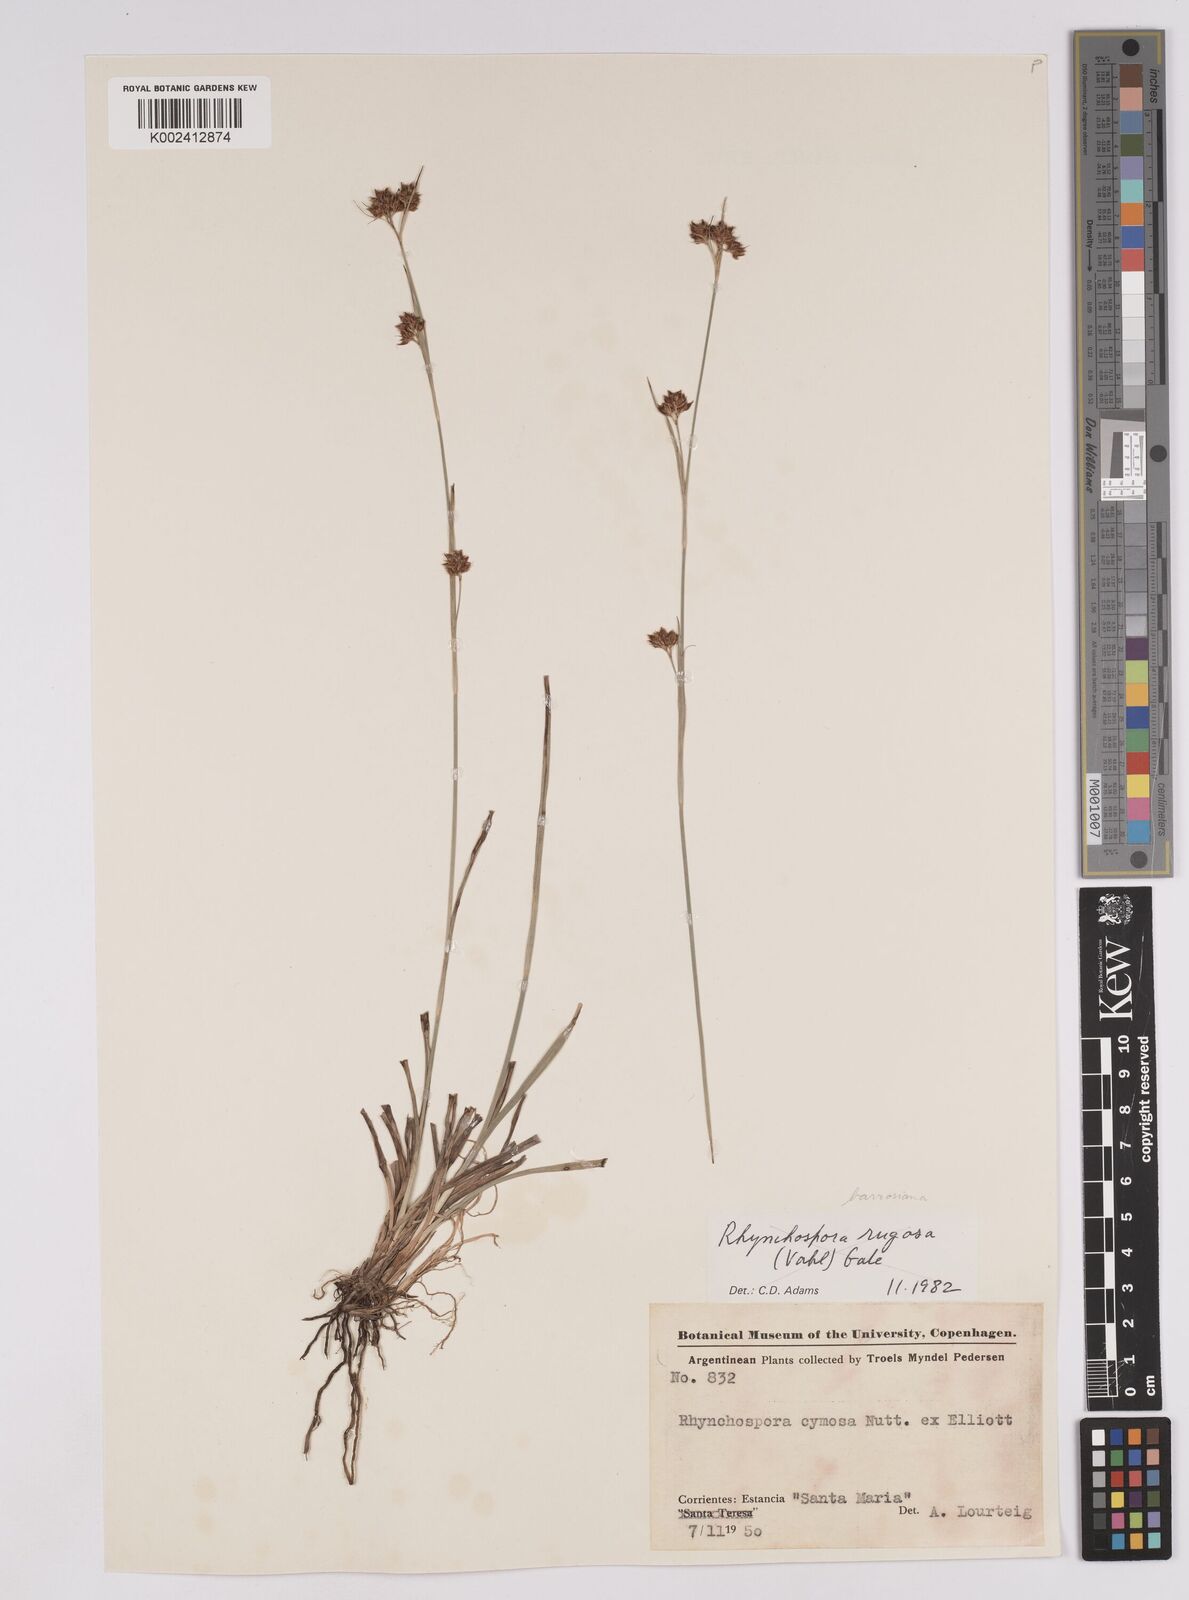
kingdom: Plantae
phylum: Tracheophyta
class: Liliopsida
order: Poales
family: Cyperaceae
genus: Rhynchospora
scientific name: Rhynchospora barrosiana
